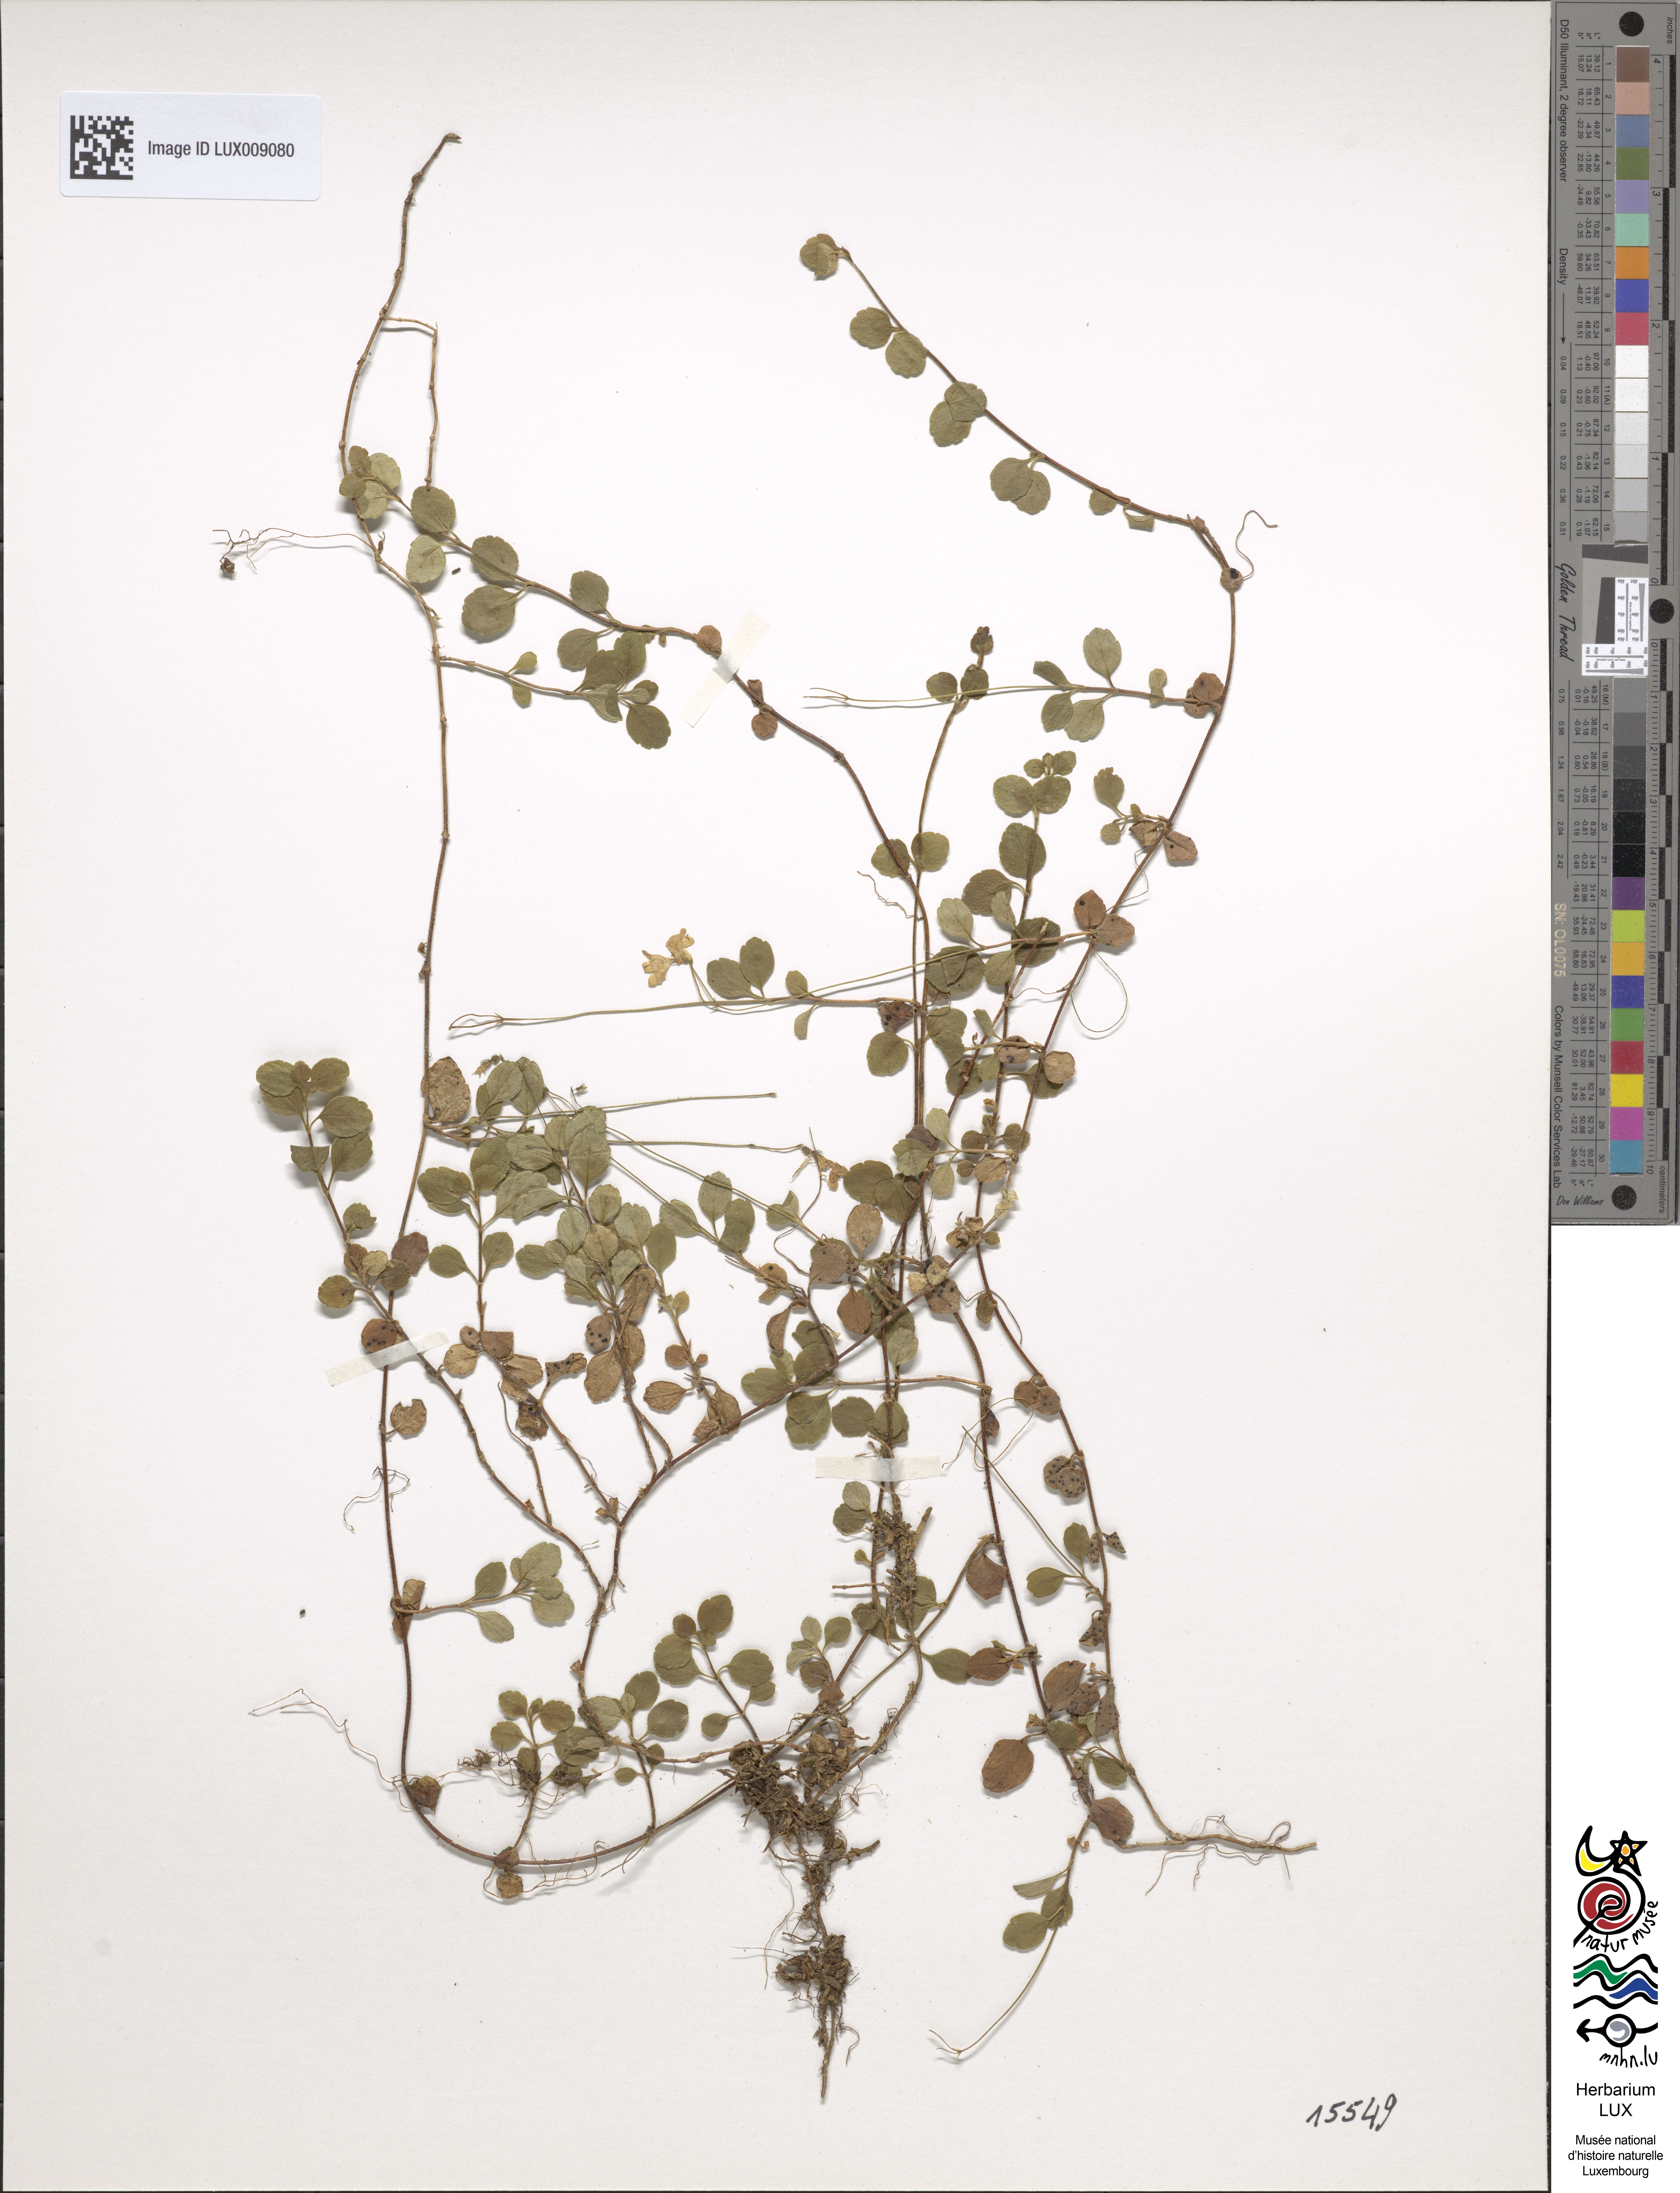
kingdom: Plantae
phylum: Tracheophyta
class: Magnoliopsida
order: Dipsacales
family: Caprifoliaceae
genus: Linnaea
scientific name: Linnaea borealis
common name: Twinflower
